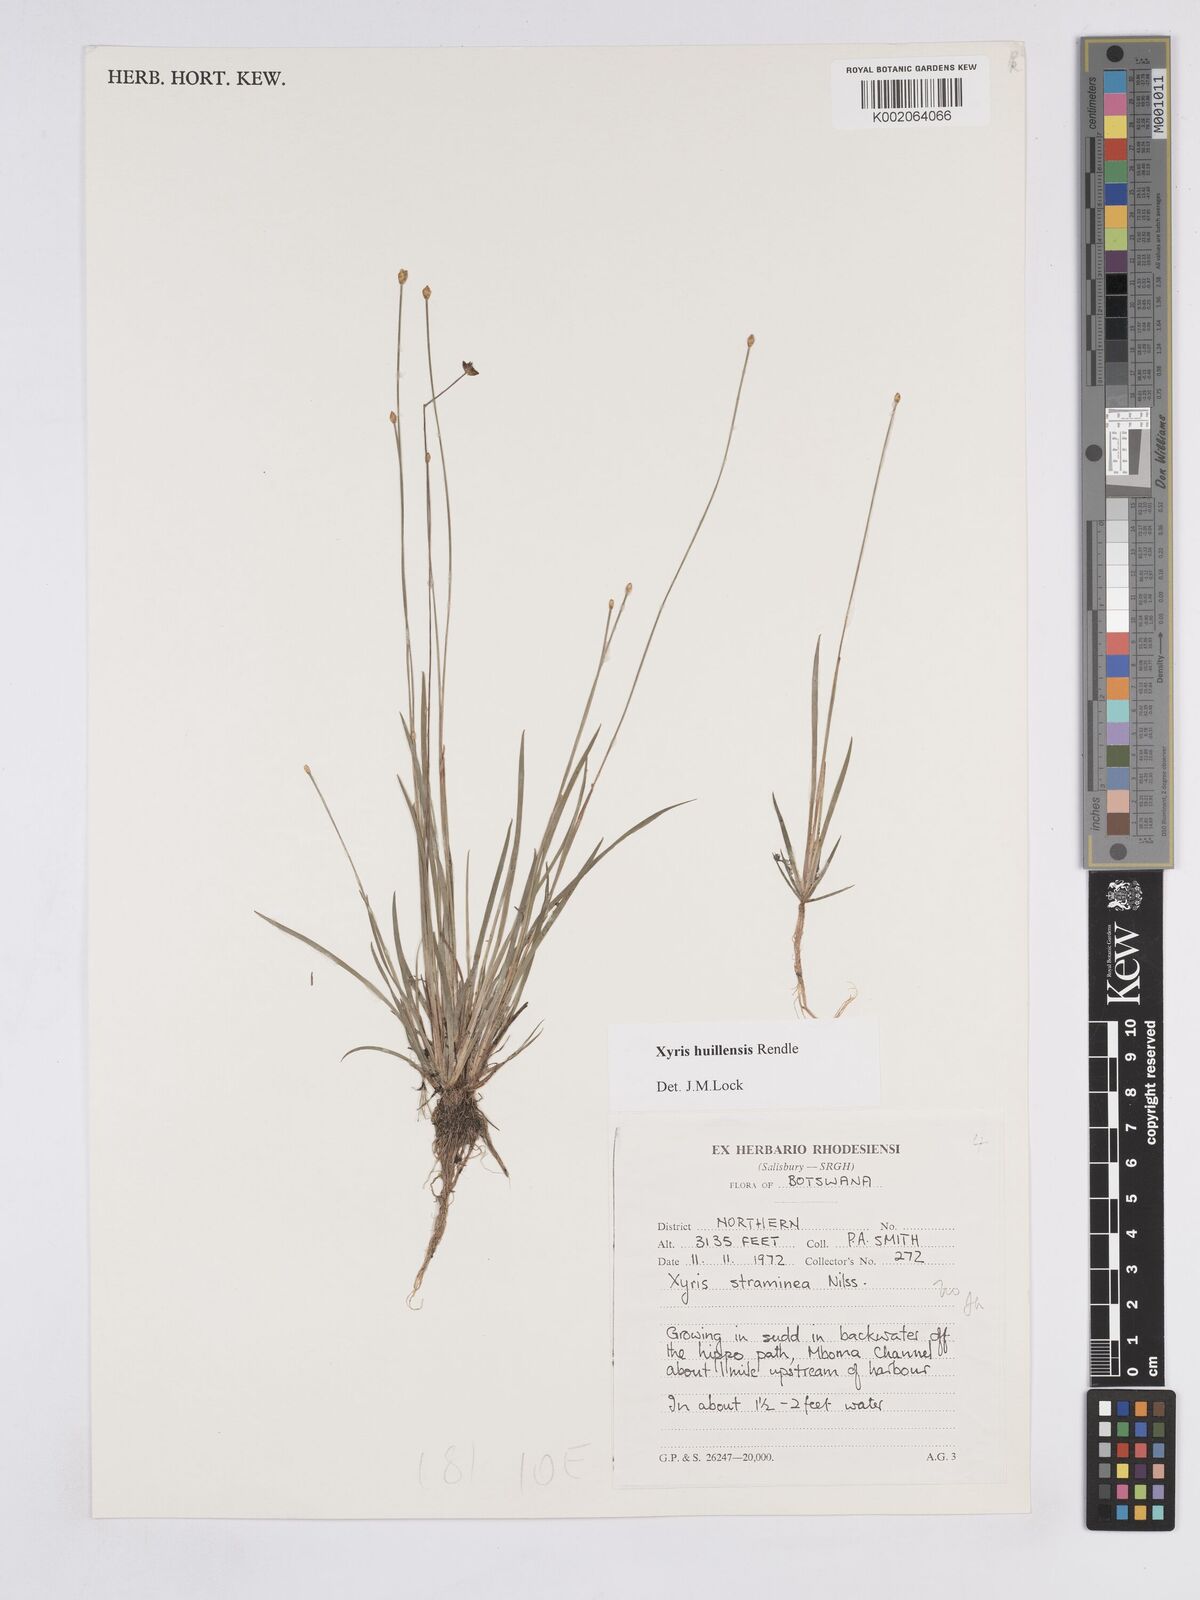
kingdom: Plantae
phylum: Tracheophyta
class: Liliopsida
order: Poales
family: Xyridaceae
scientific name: Xyridaceae
